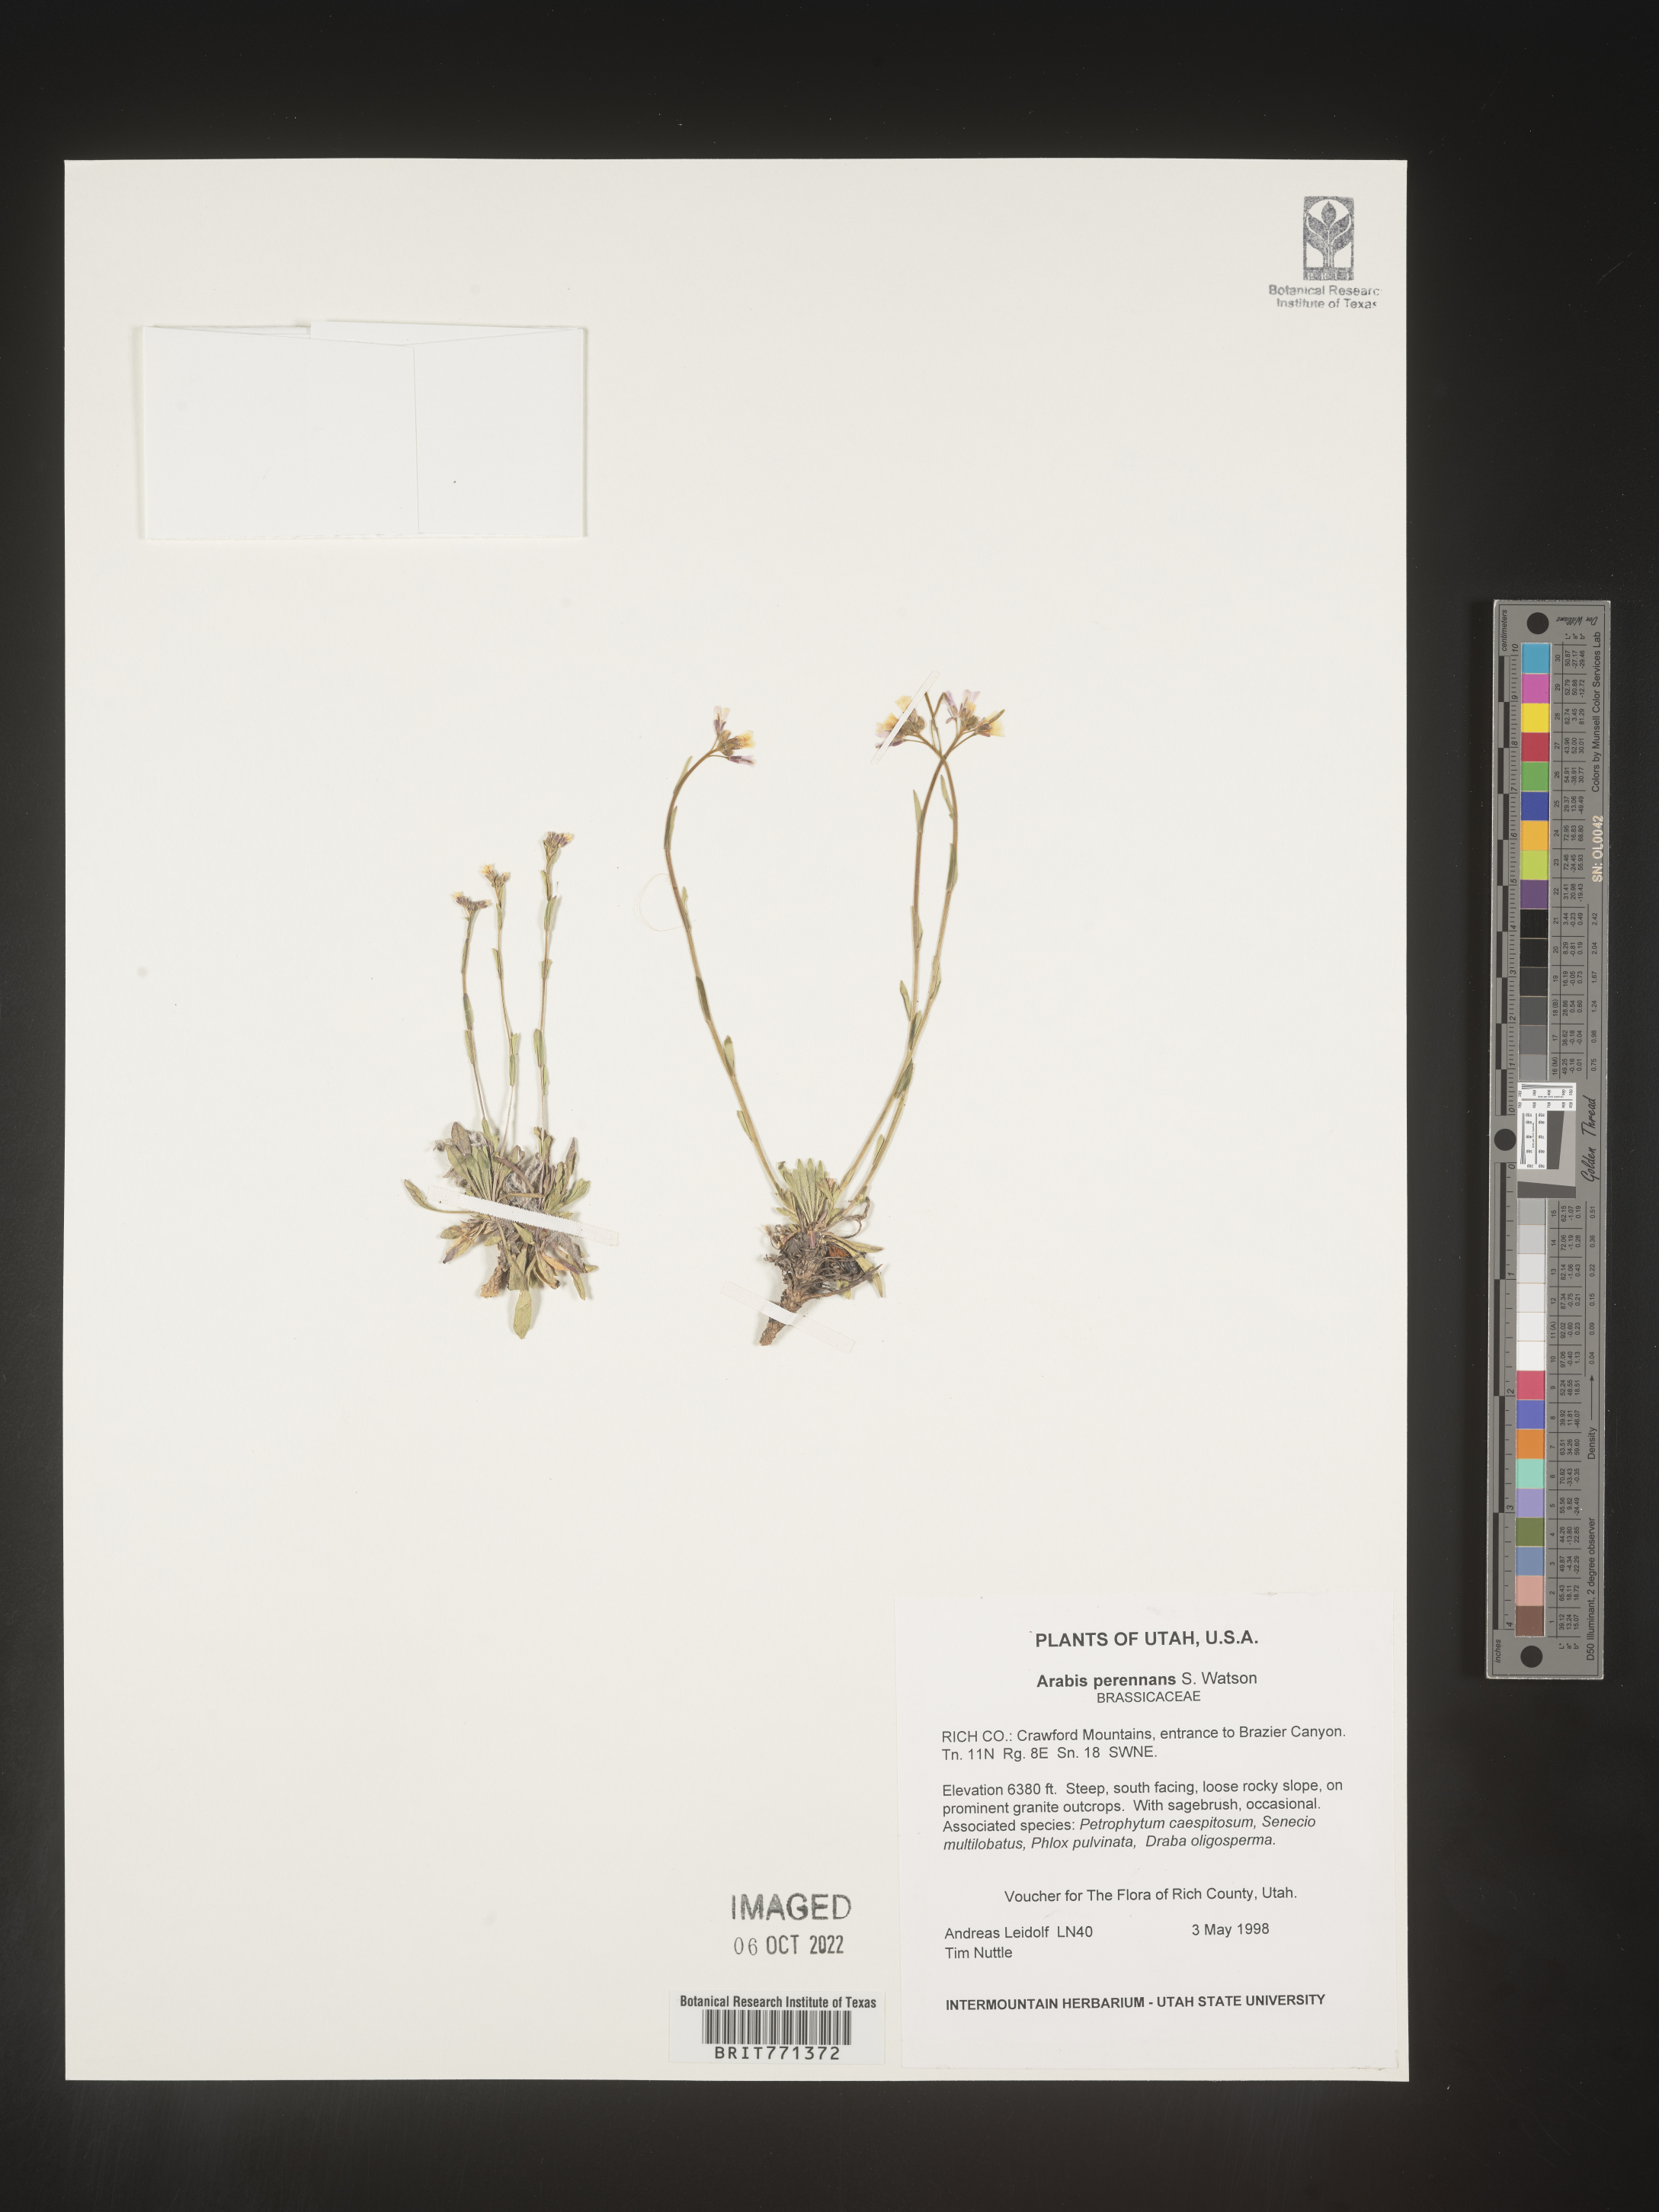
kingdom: Plantae
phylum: Tracheophyta
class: Magnoliopsida
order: Brassicales
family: Brassicaceae
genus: Arabis
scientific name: Arabis
